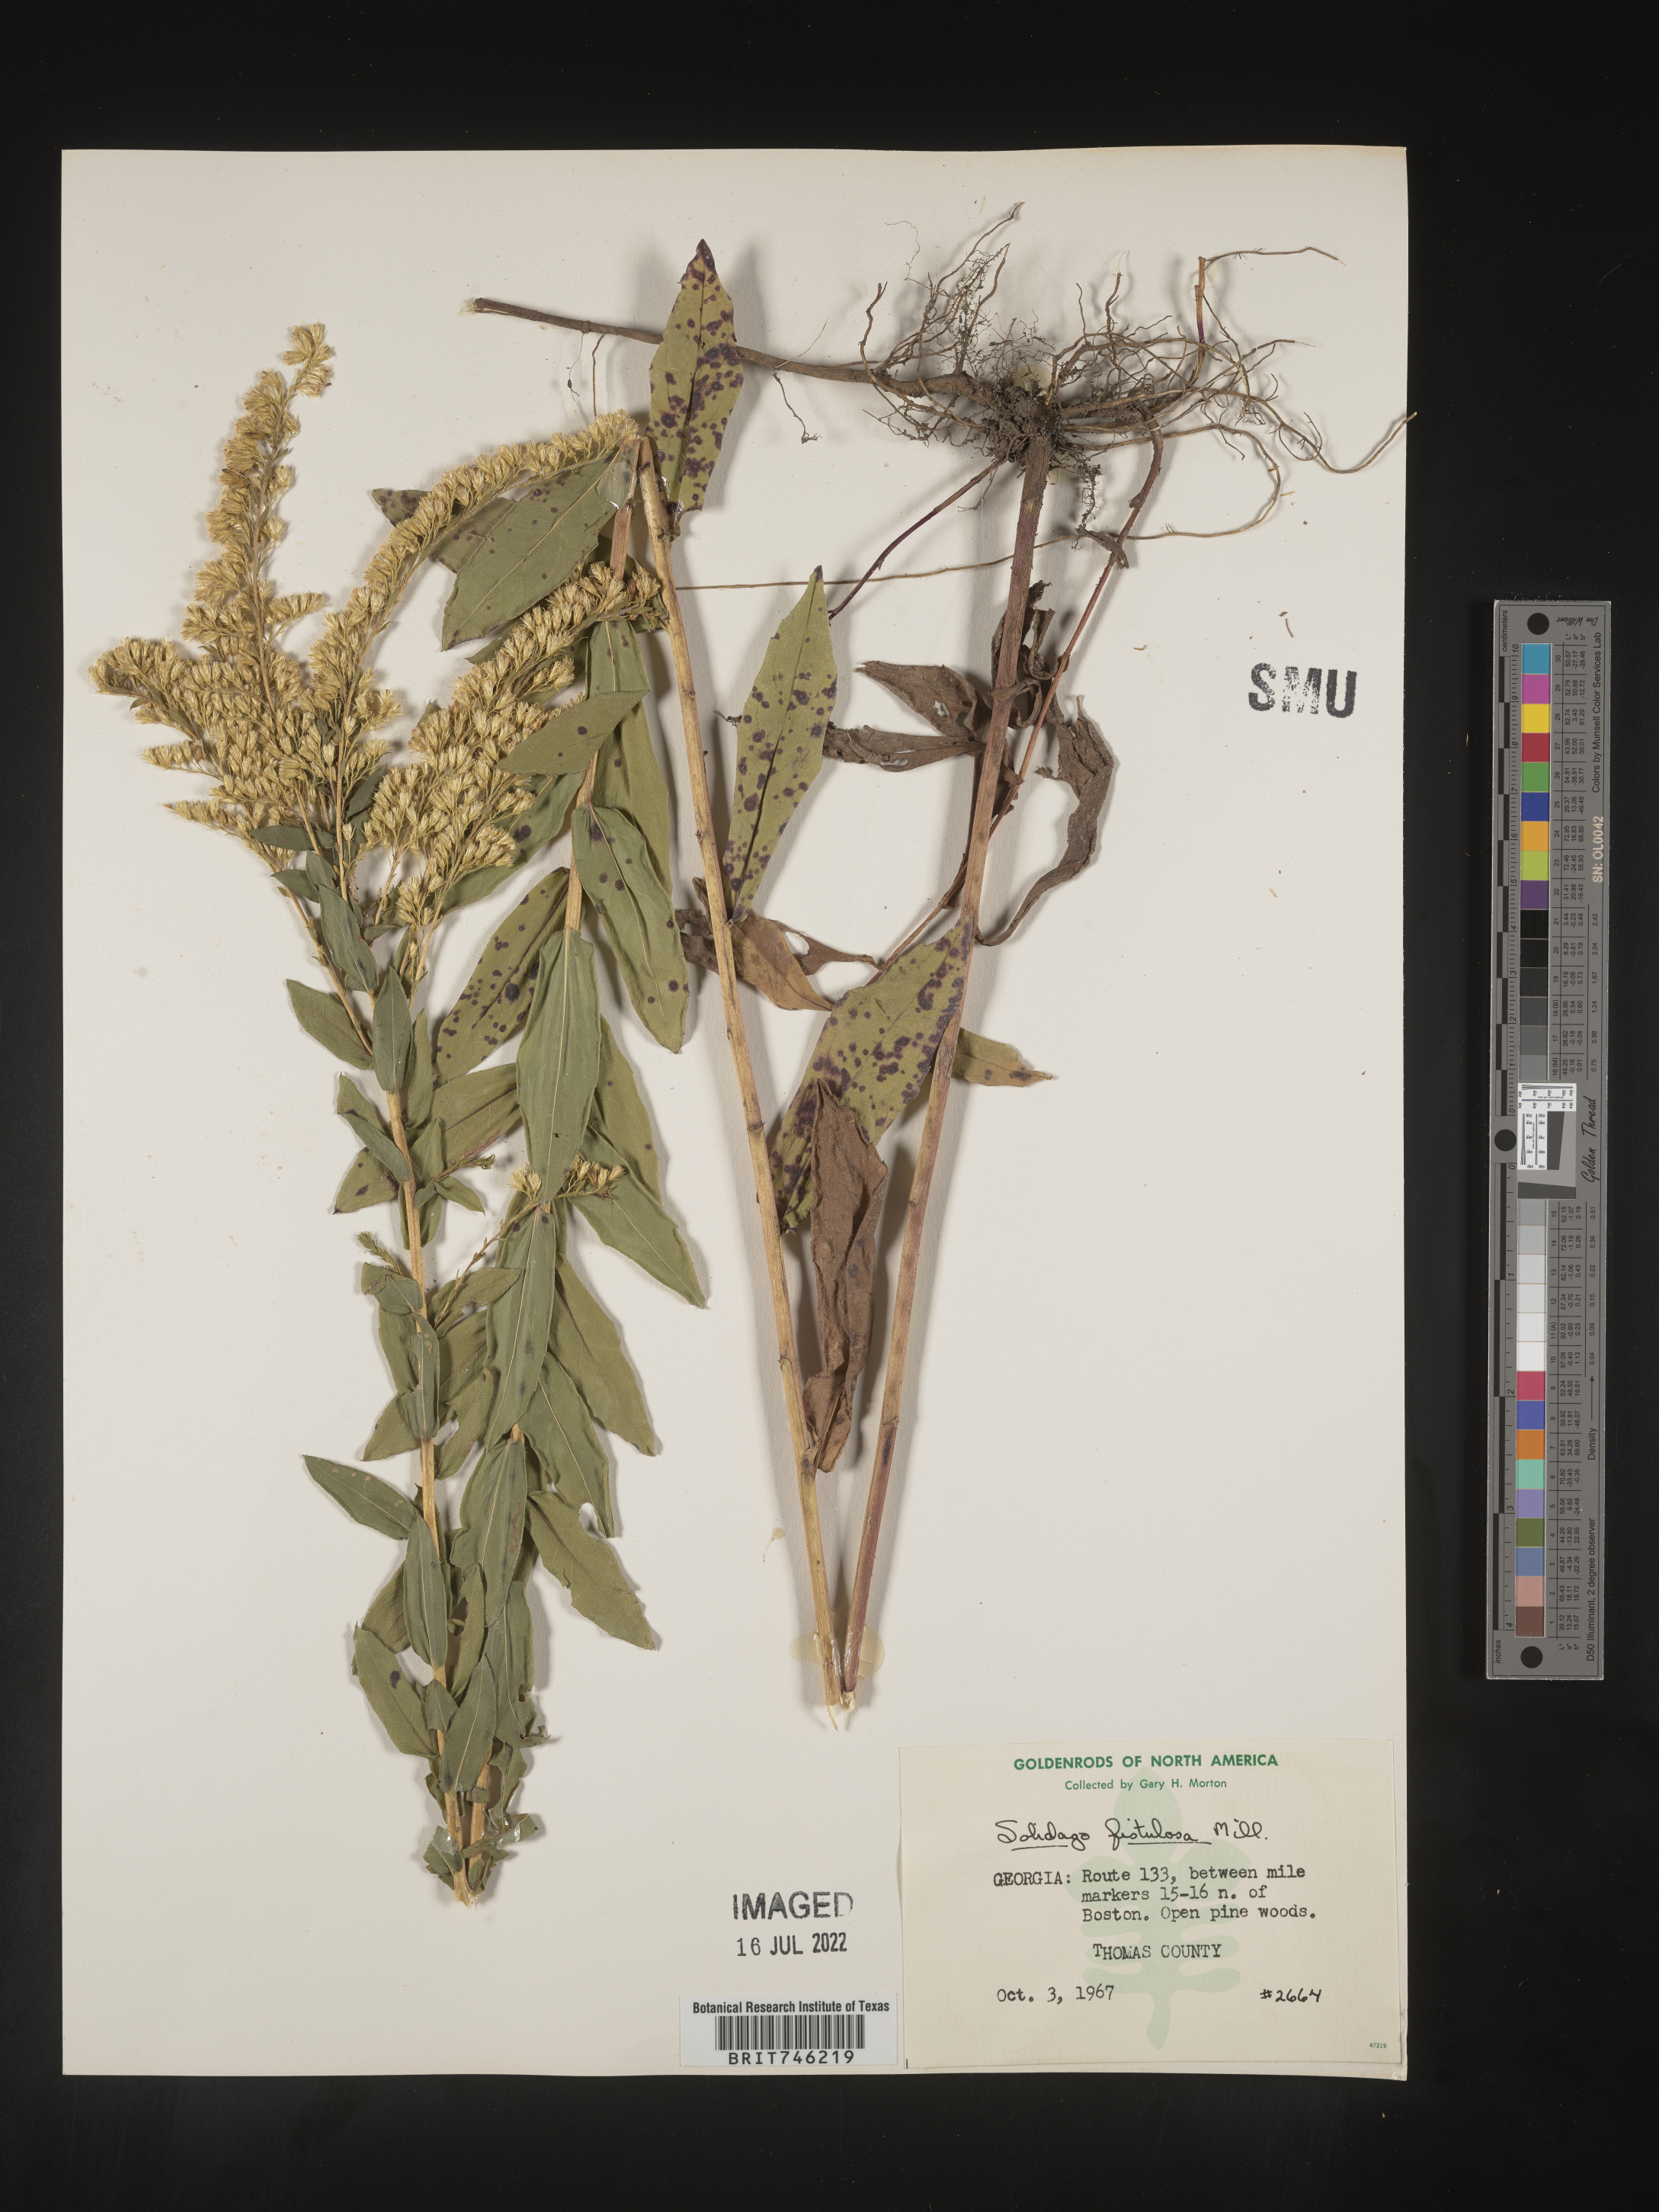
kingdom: Plantae
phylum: Tracheophyta
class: Magnoliopsida
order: Asterales
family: Asteraceae
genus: Solidago
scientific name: Solidago fistulosa
